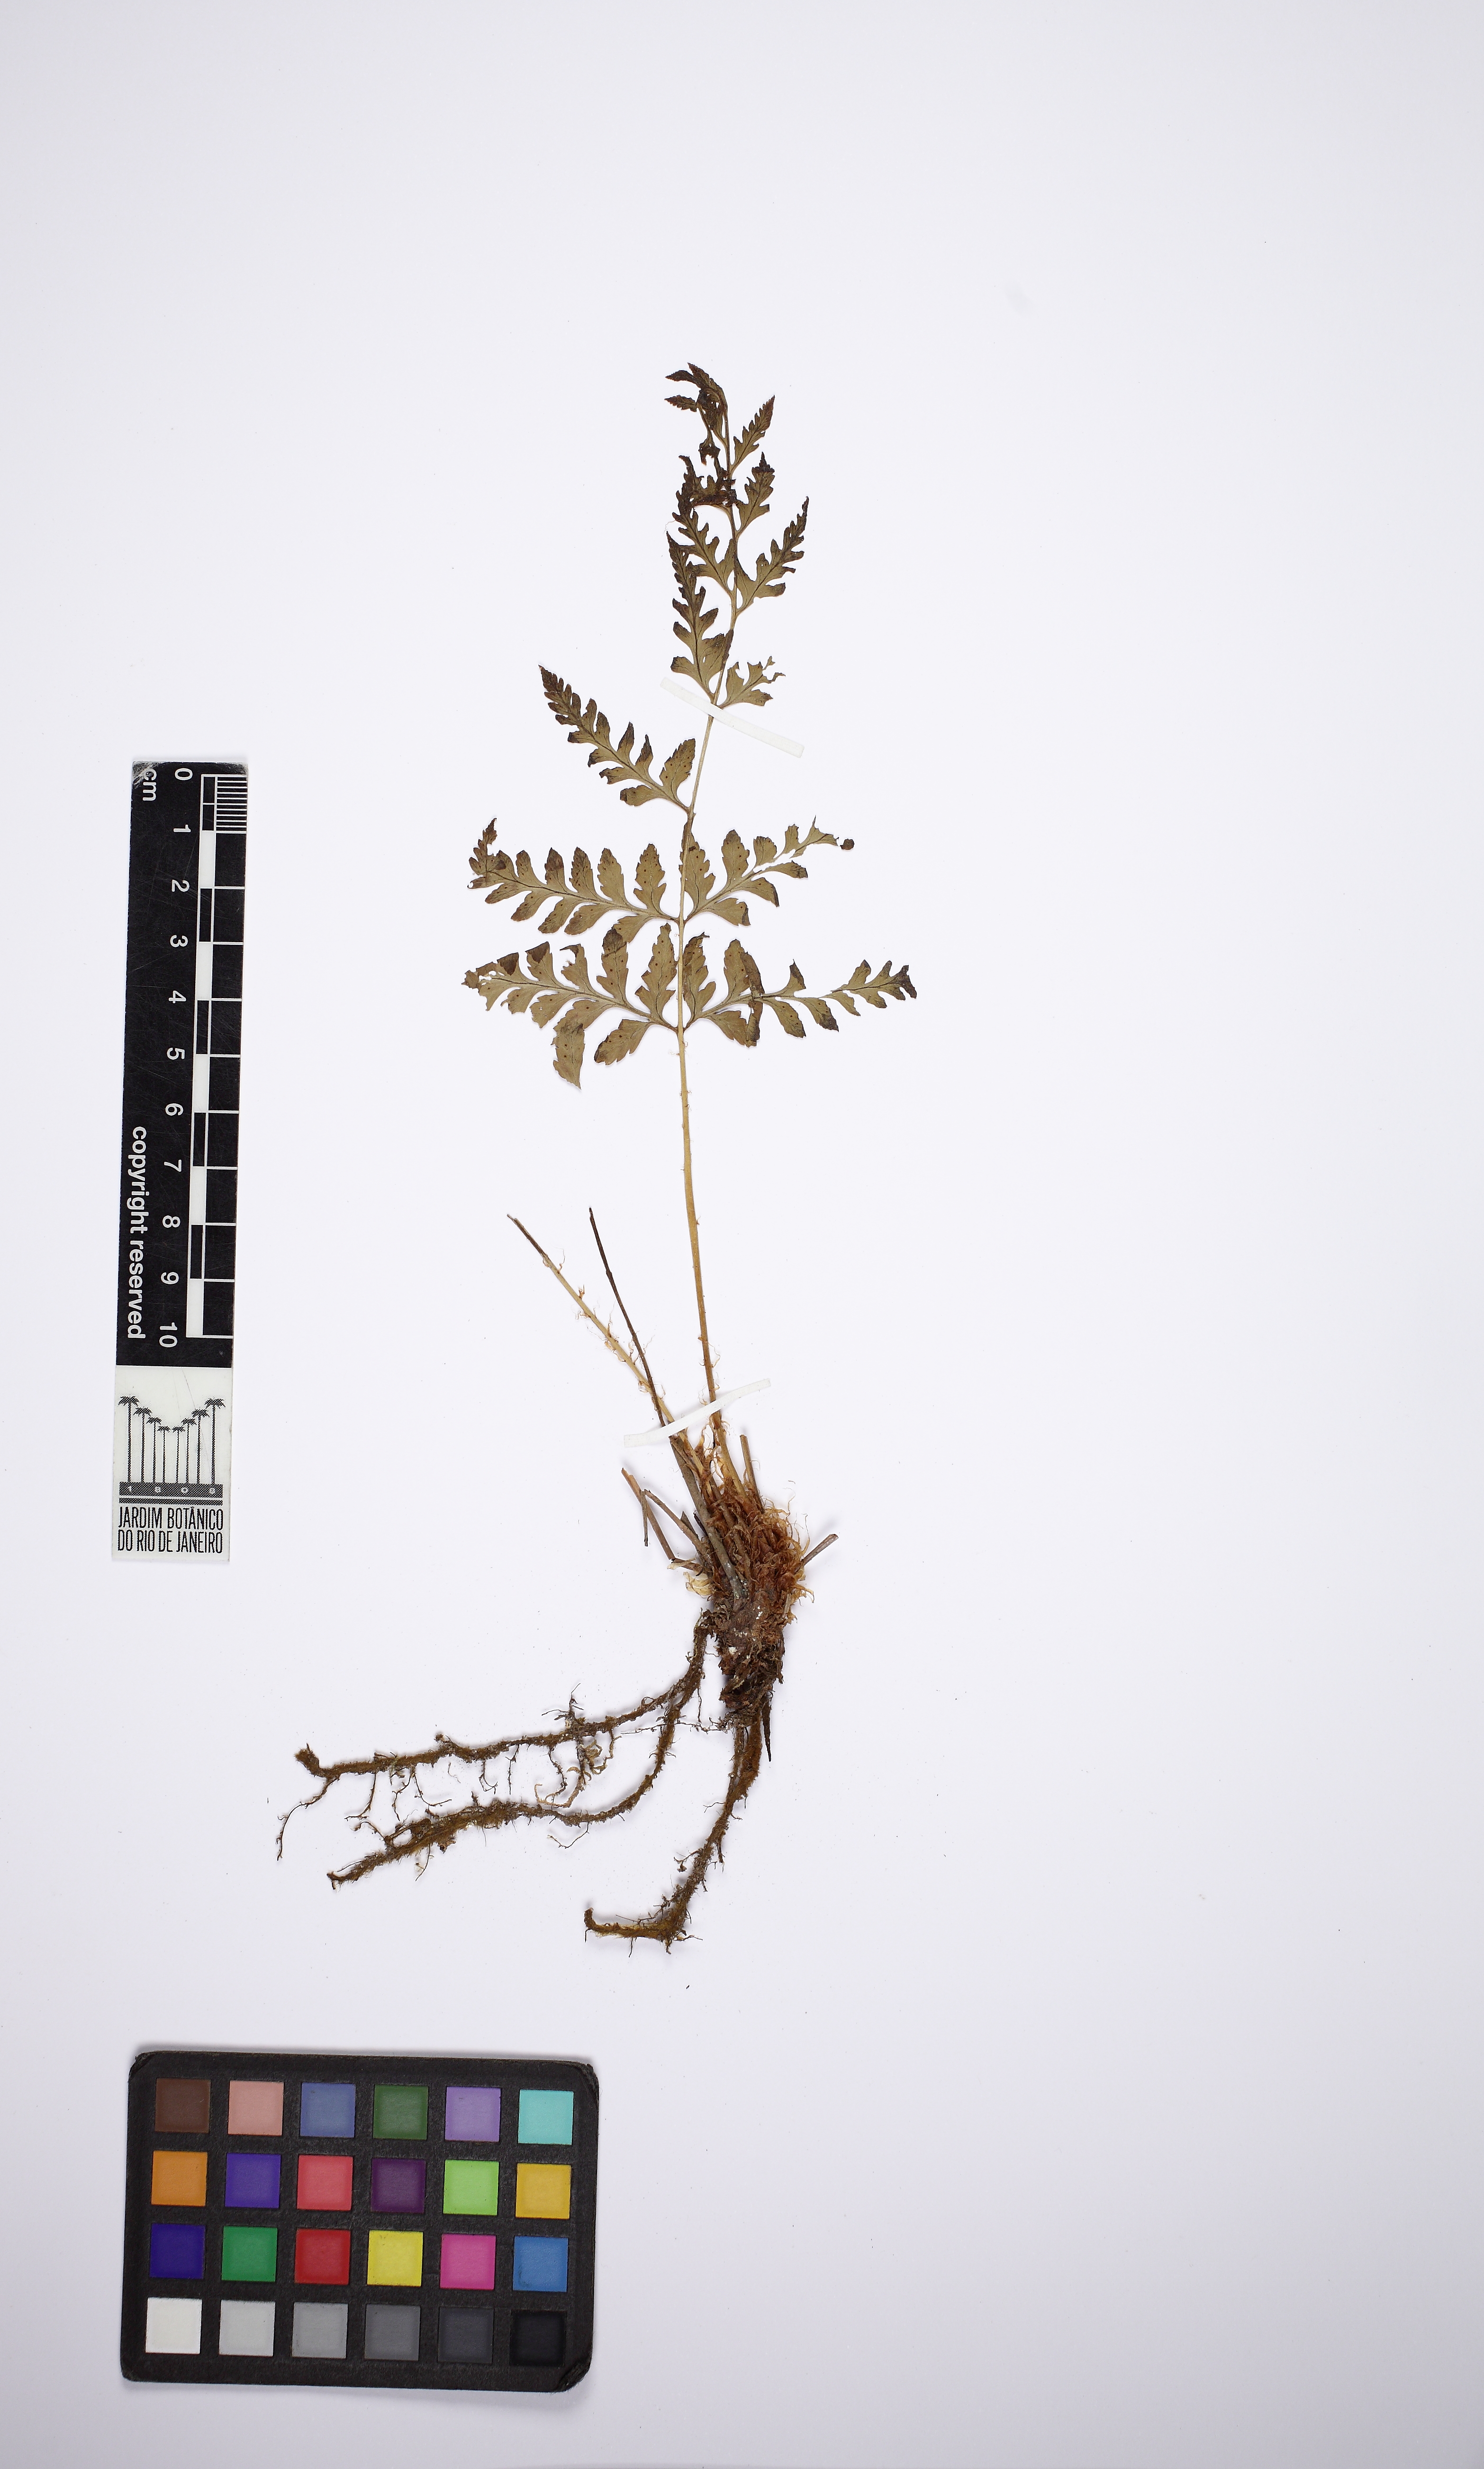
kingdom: Plantae
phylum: Tracheophyta
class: Polypodiopsida
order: Polypodiales
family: Dryopteridaceae
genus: Dryopteris
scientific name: Dryopteris patula
